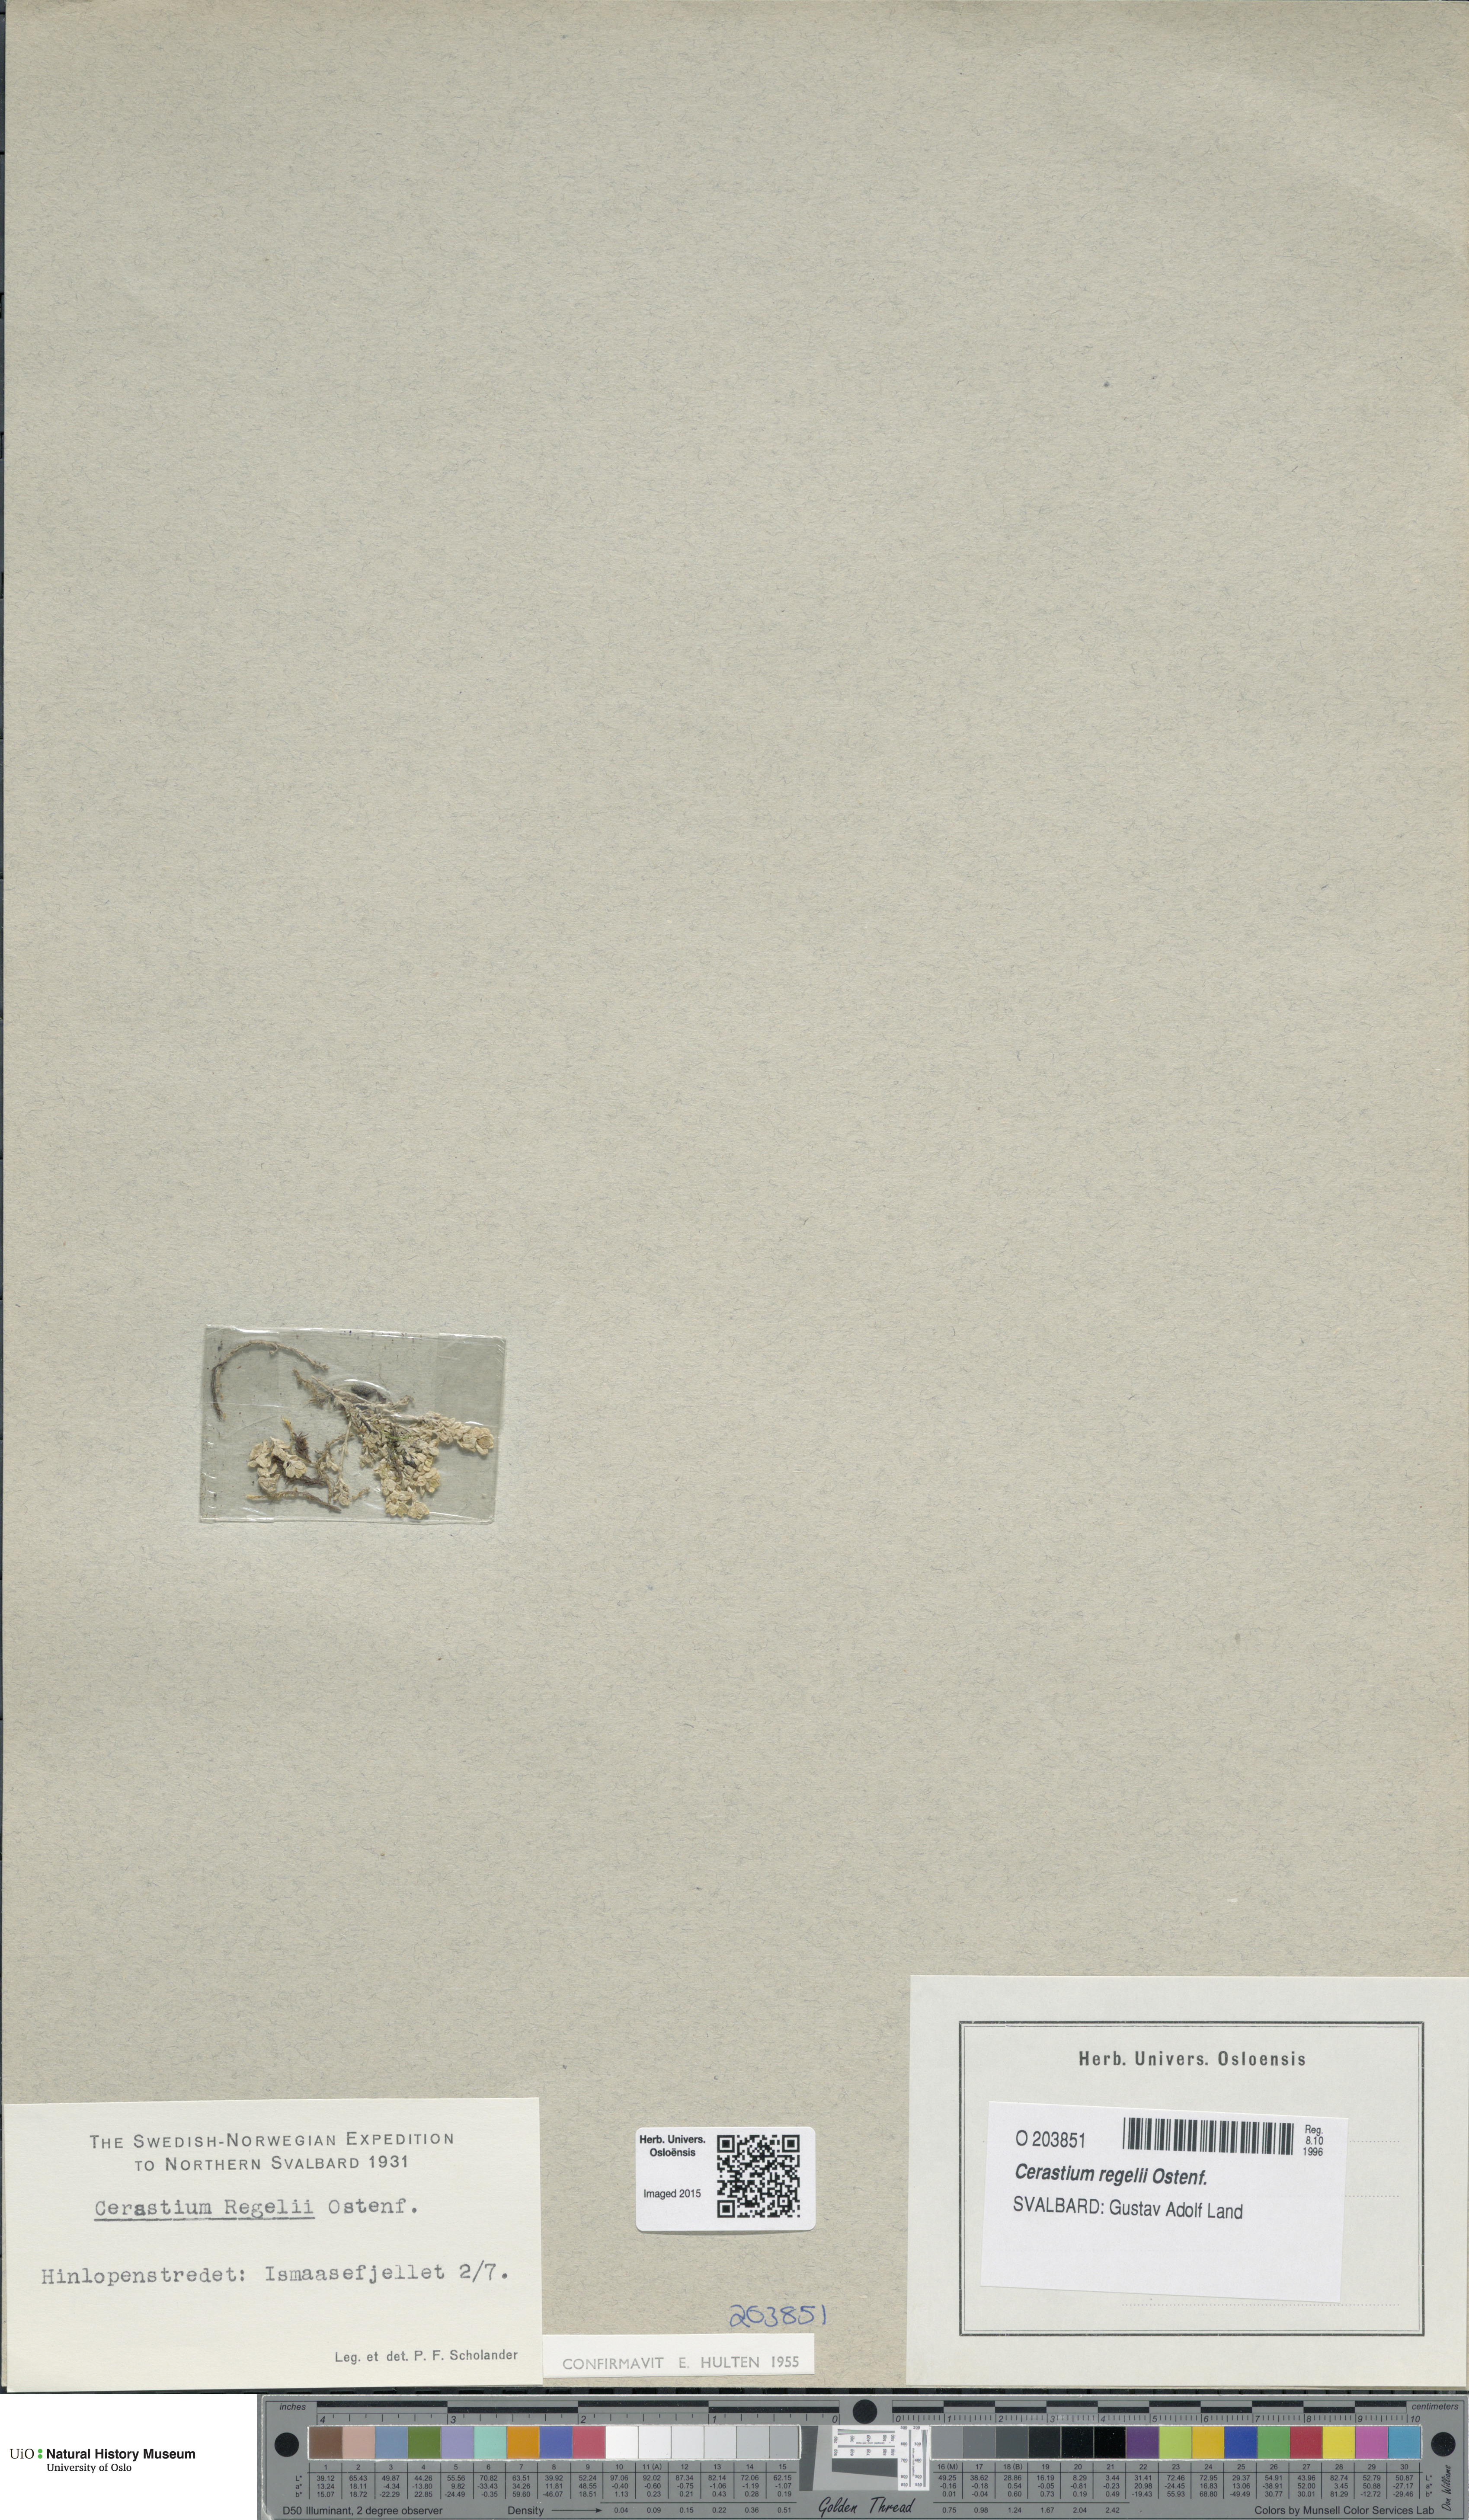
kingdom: Plantae
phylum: Tracheophyta
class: Magnoliopsida
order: Caryophyllales
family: Caryophyllaceae
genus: Cerastium
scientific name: Cerastium regelii
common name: Regel's chickweed
